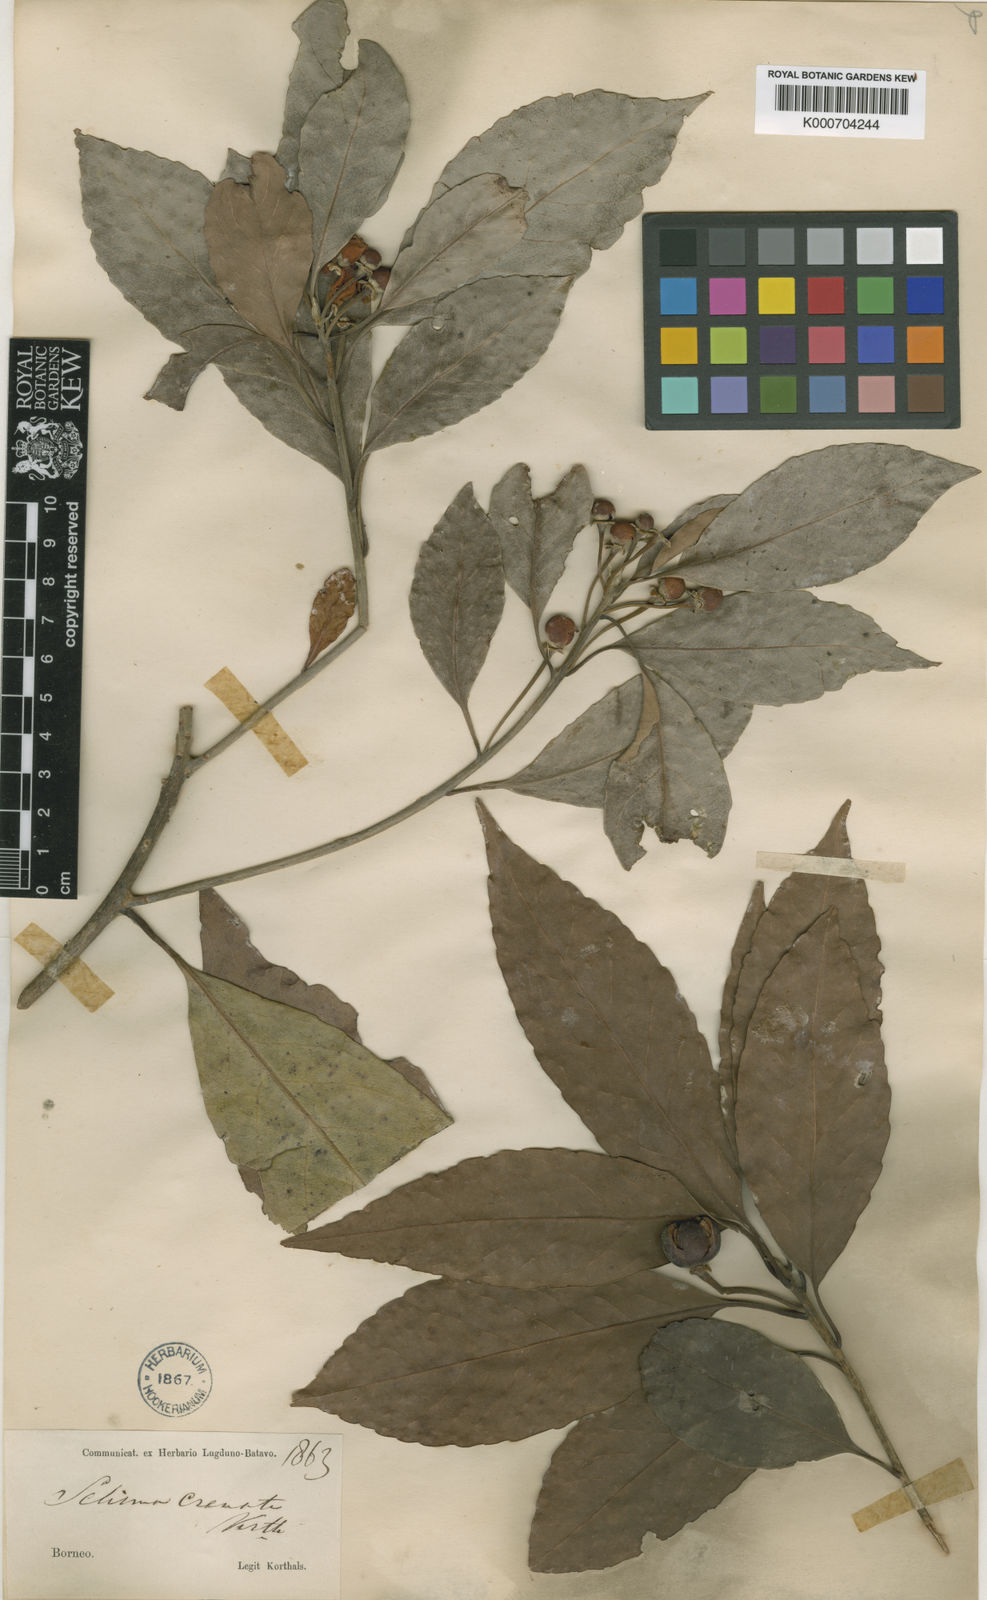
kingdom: Plantae
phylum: Tracheophyta
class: Magnoliopsida
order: Ericales
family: Theaceae
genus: Schima
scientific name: Schima
